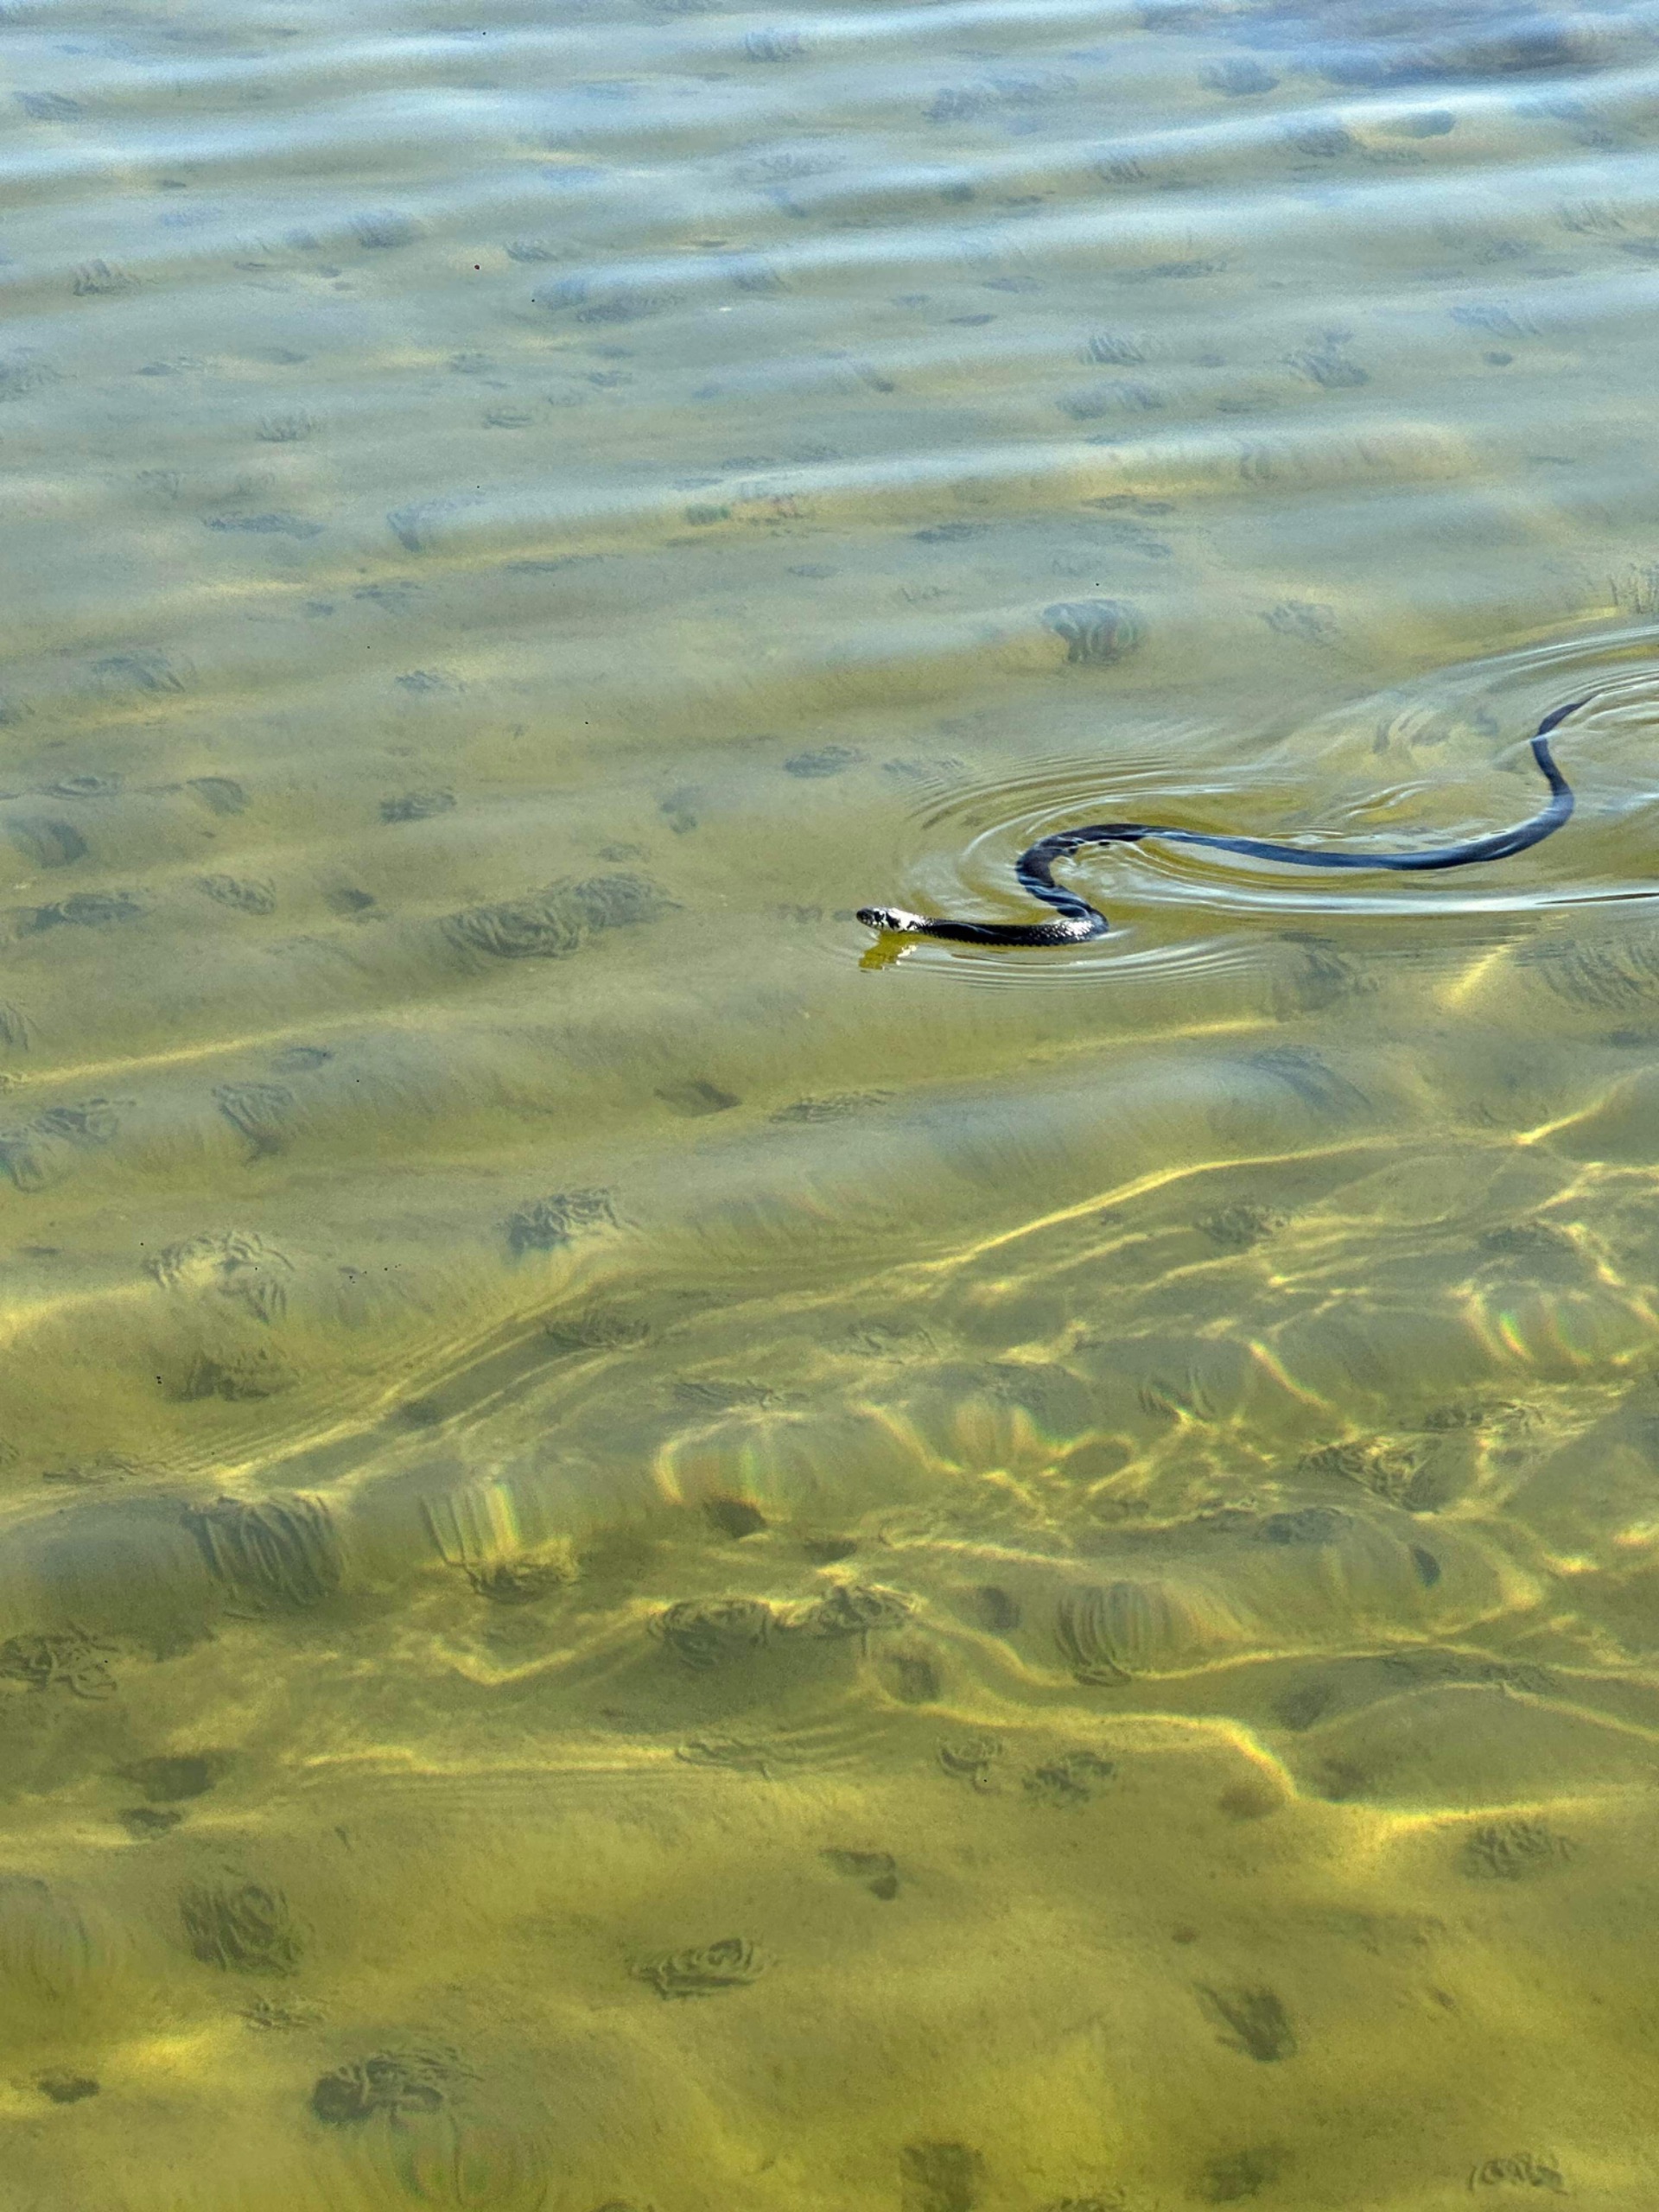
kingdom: Animalia
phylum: Chordata
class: Squamata
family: Colubridae
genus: Natrix
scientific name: Natrix natrix
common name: Snog
